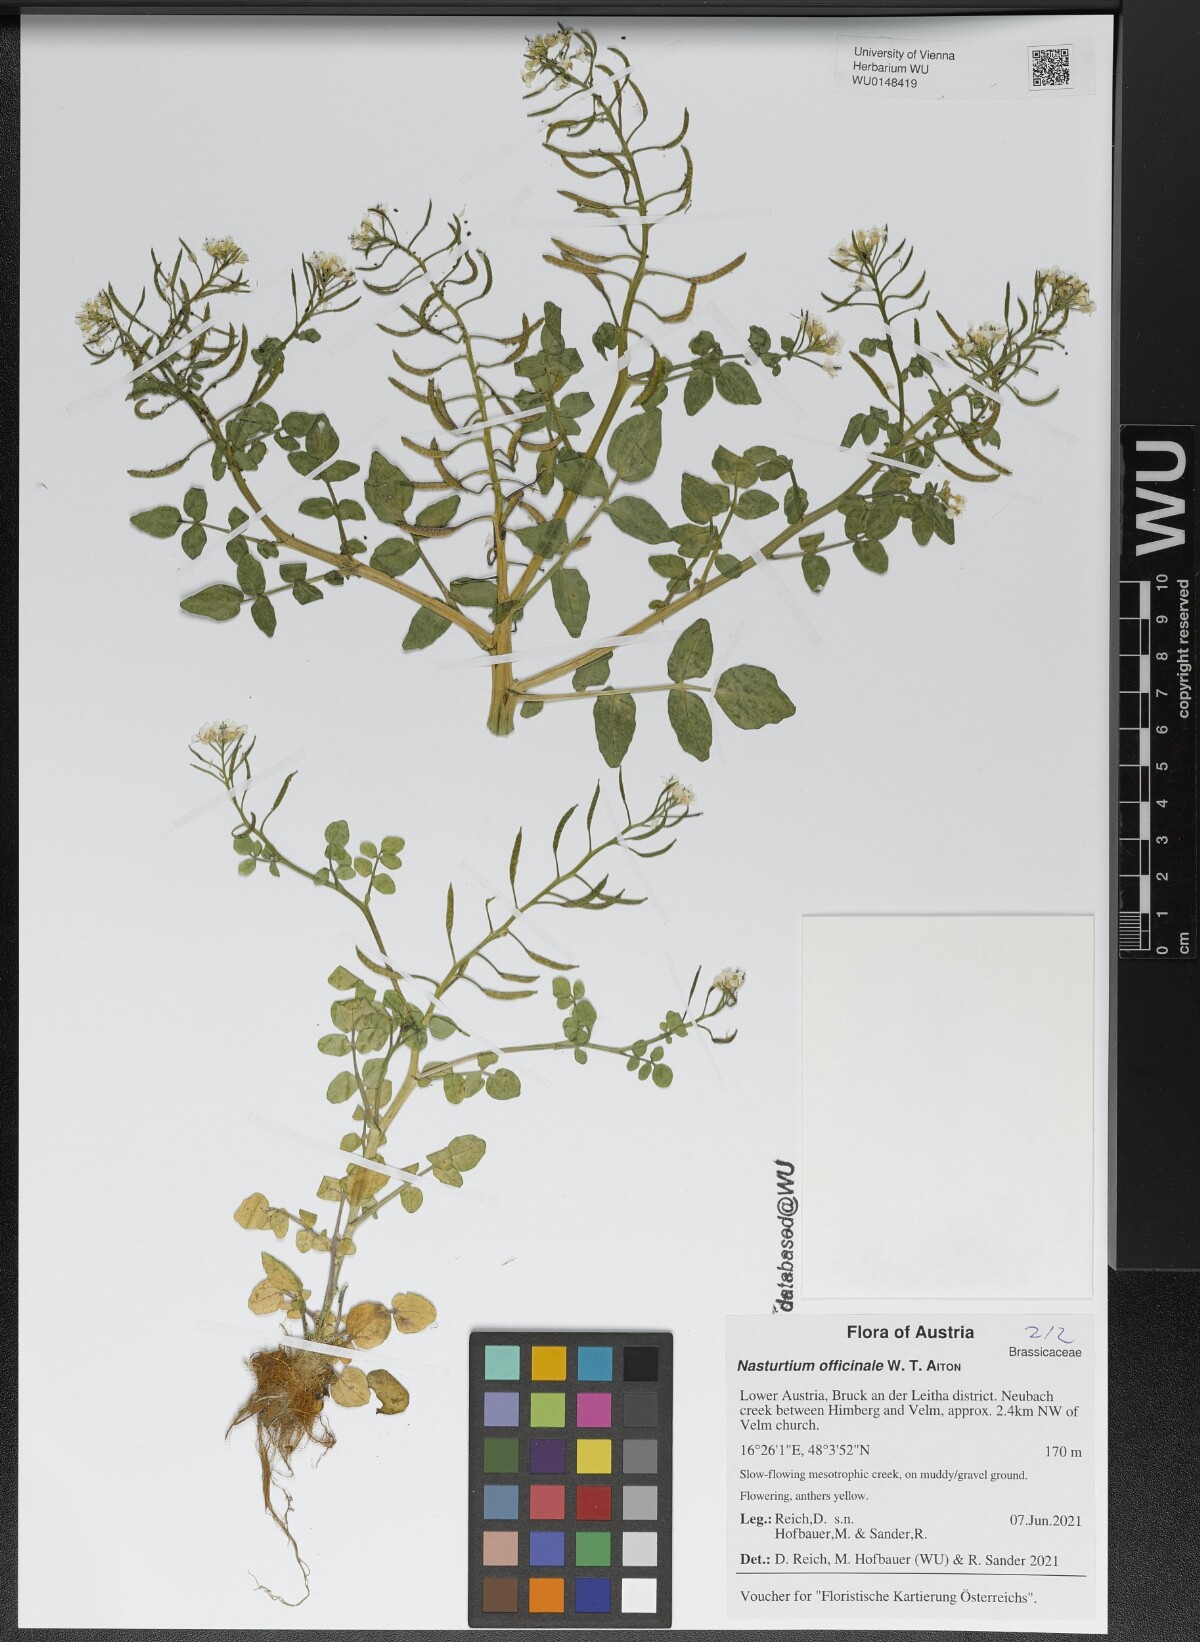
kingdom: Plantae
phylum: Tracheophyta
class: Magnoliopsida
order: Brassicales
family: Brassicaceae
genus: Nasturtium
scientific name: Nasturtium officinale
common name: Watercress
